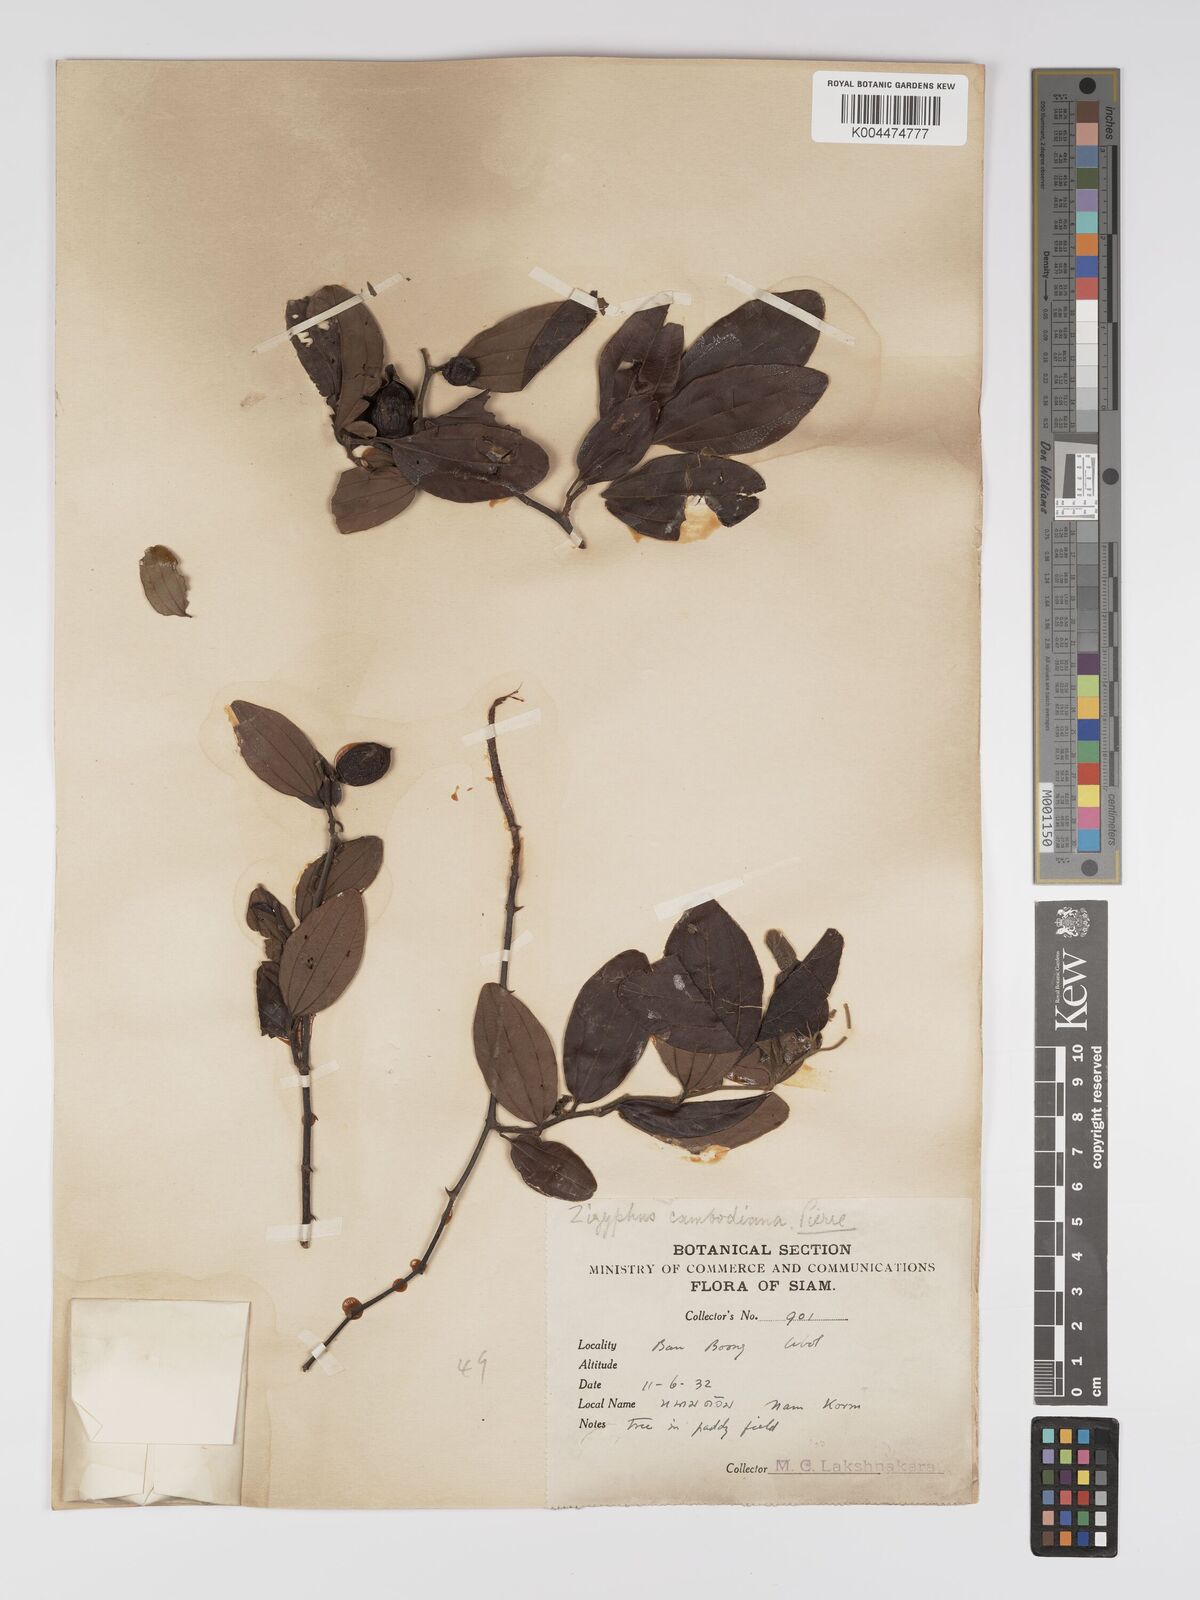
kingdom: Plantae
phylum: Tracheophyta
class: Magnoliopsida
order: Rosales
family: Rhamnaceae
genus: Ziziphus
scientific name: Ziziphus cambodiana
